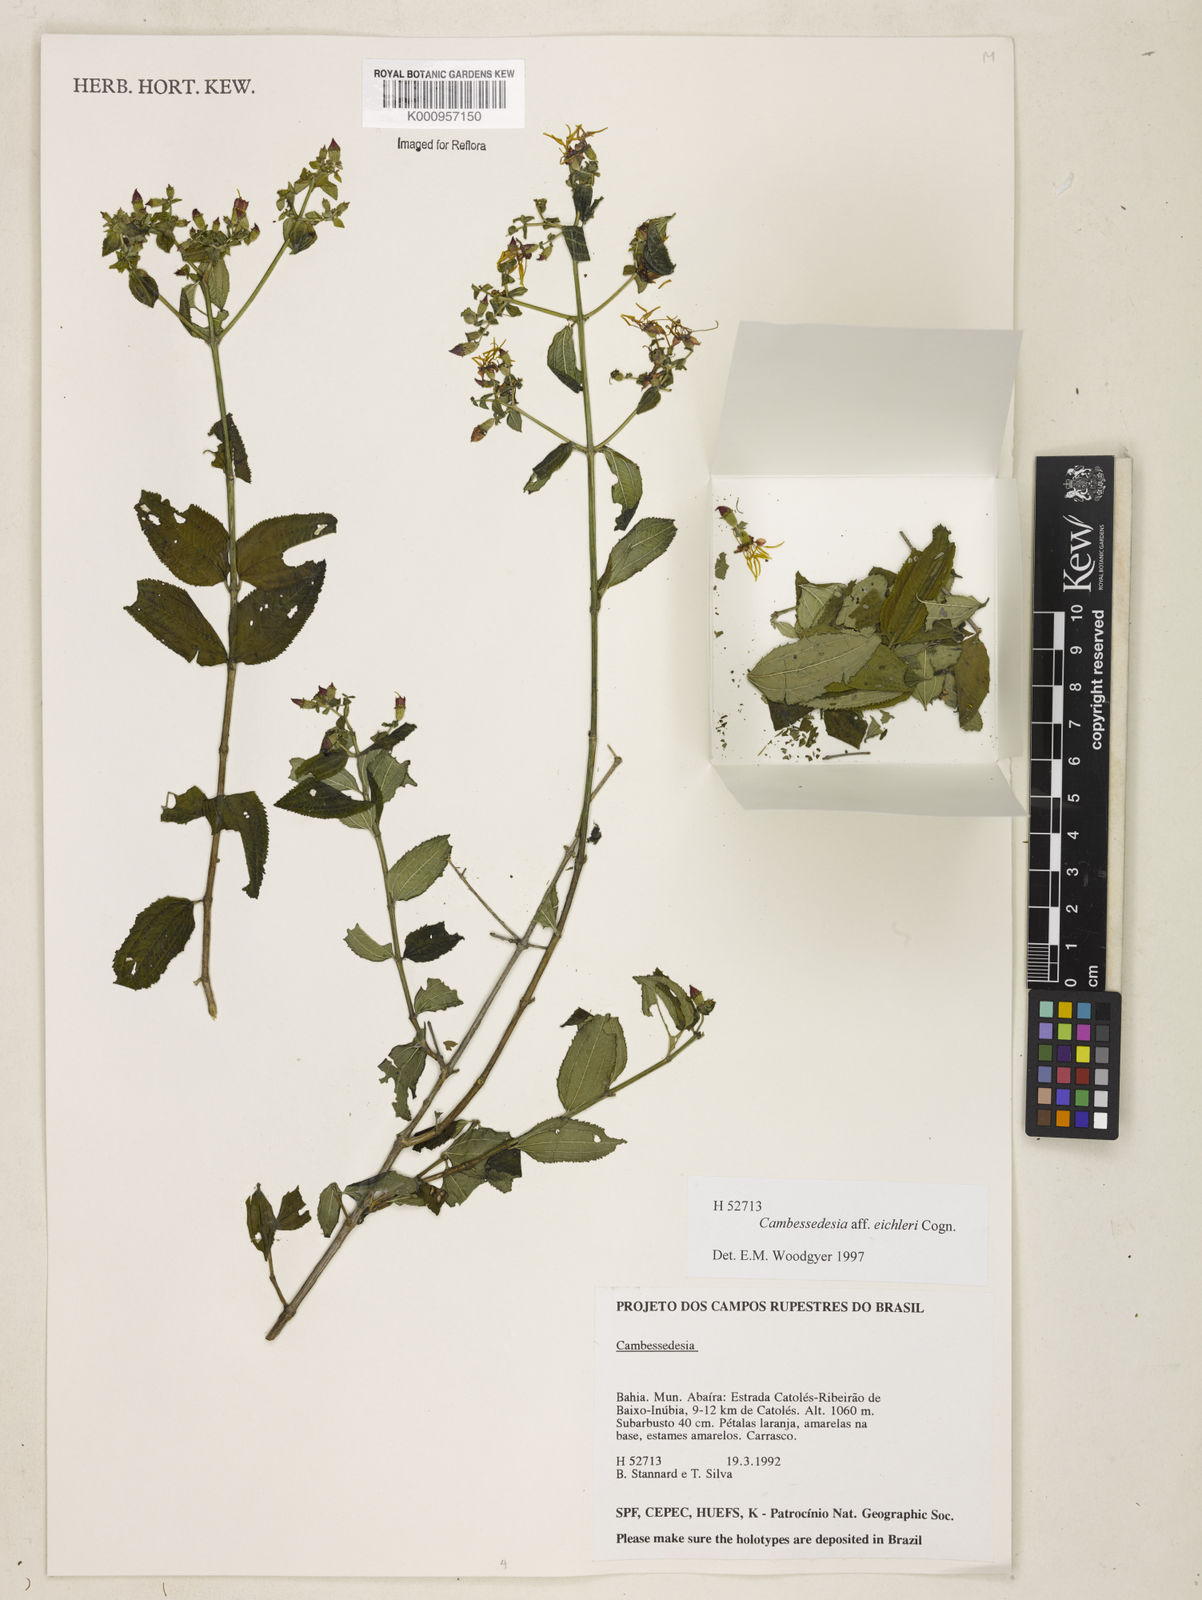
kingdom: Plantae
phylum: Tracheophyta
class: Magnoliopsida
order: Myrtales
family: Melastomataceae
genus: Cambessedesia
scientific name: Cambessedesia eichleri
